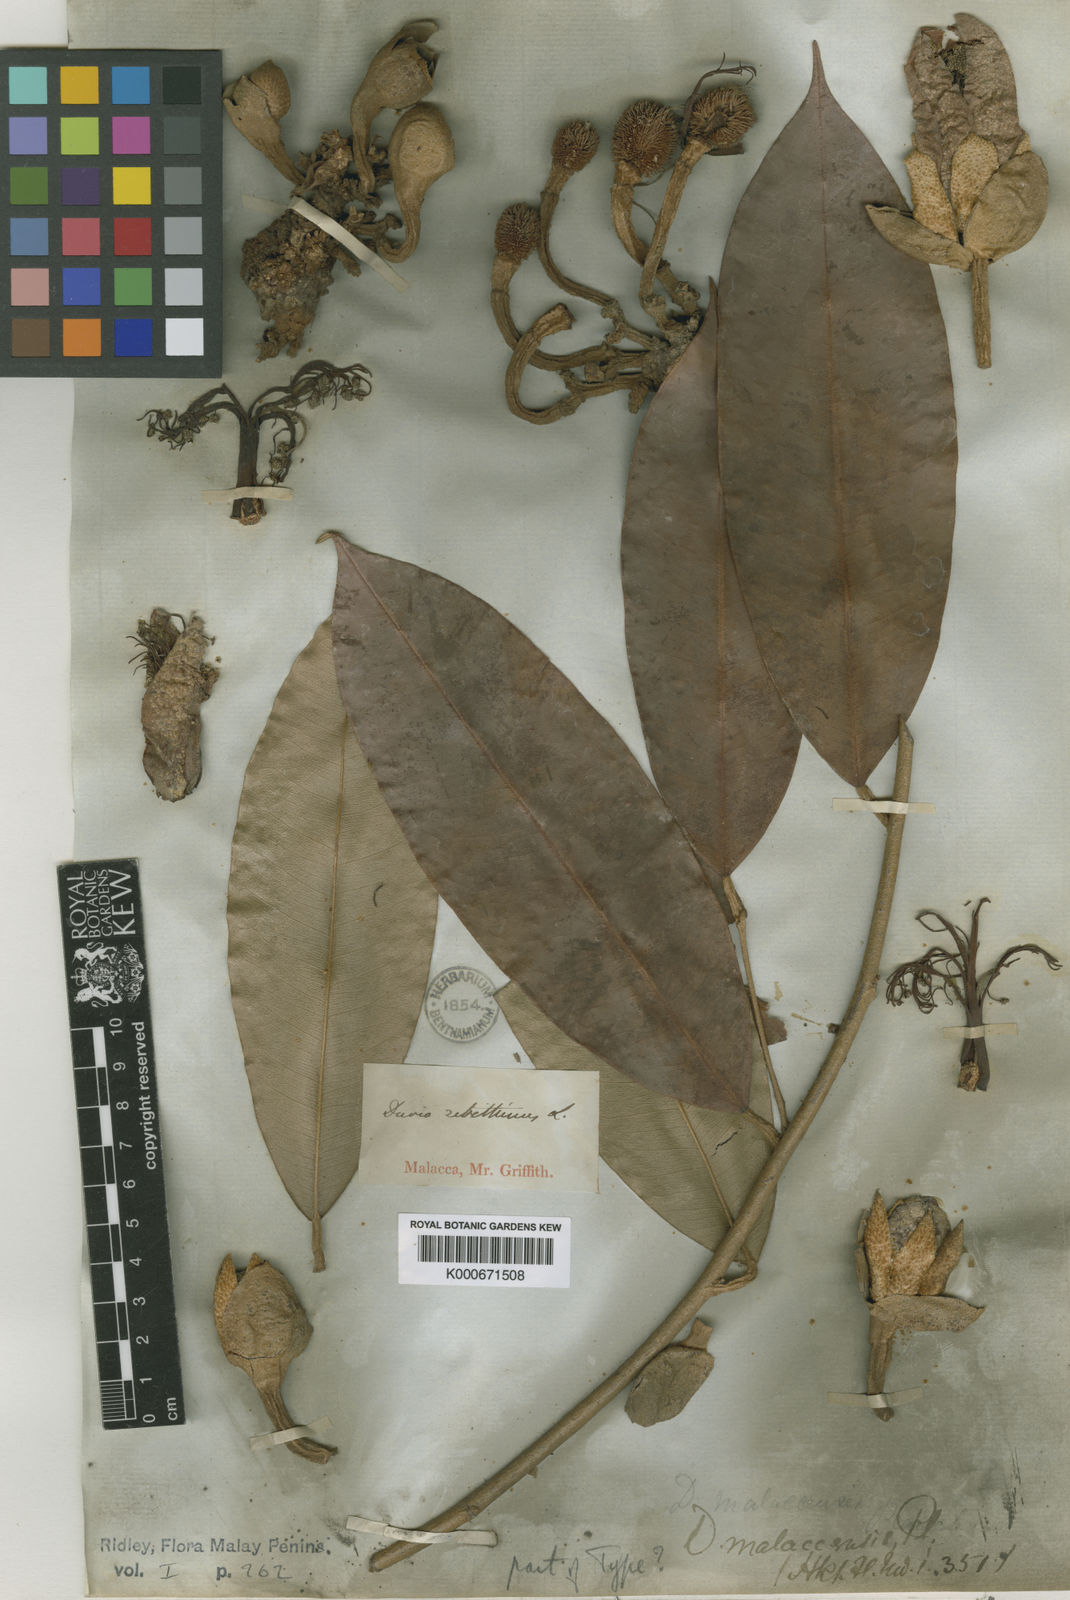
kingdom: Plantae
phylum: Tracheophyta
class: Magnoliopsida
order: Malvales
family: Malvaceae
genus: Durio
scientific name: Durio malaccensis
